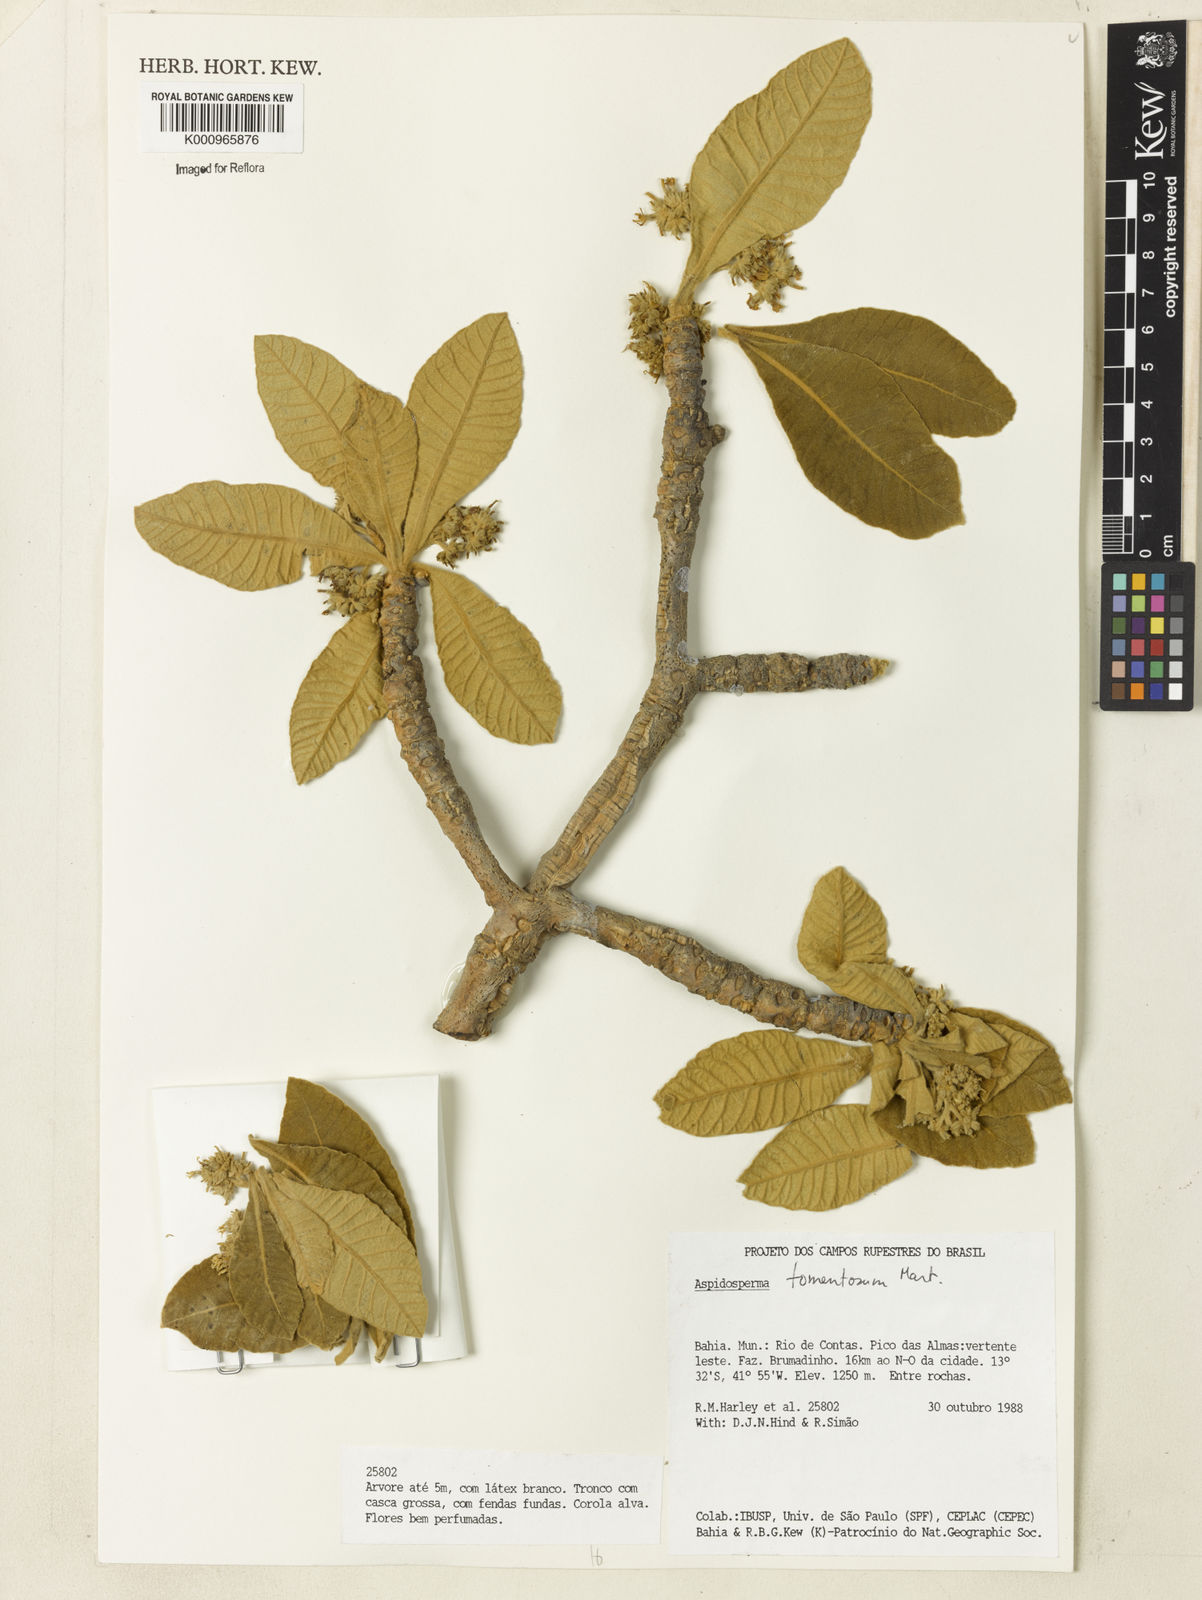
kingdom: Plantae
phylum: Tracheophyta
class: Magnoliopsida
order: Gentianales
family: Apocynaceae
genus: Aspidosperma
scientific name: Aspidosperma tomentosum
